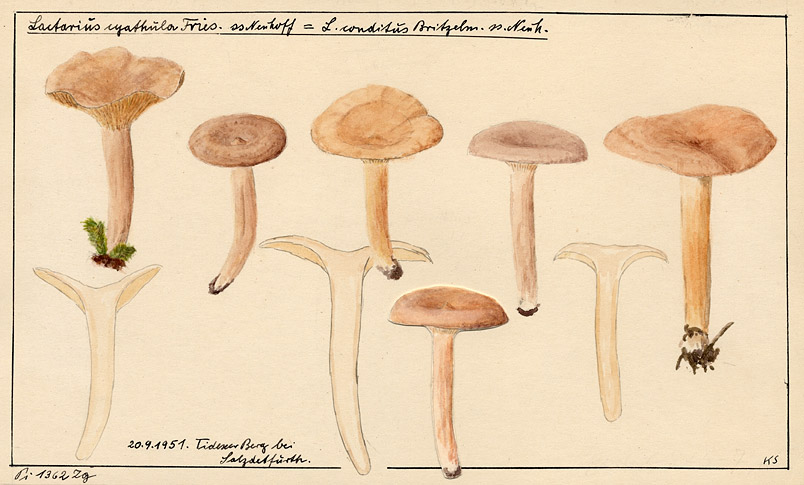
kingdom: Fungi
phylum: Basidiomycota
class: Agaricomycetes
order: Russulales
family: Russulaceae
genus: Lactarius
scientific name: Lactarius glyciosmus
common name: Coconut milkcap
